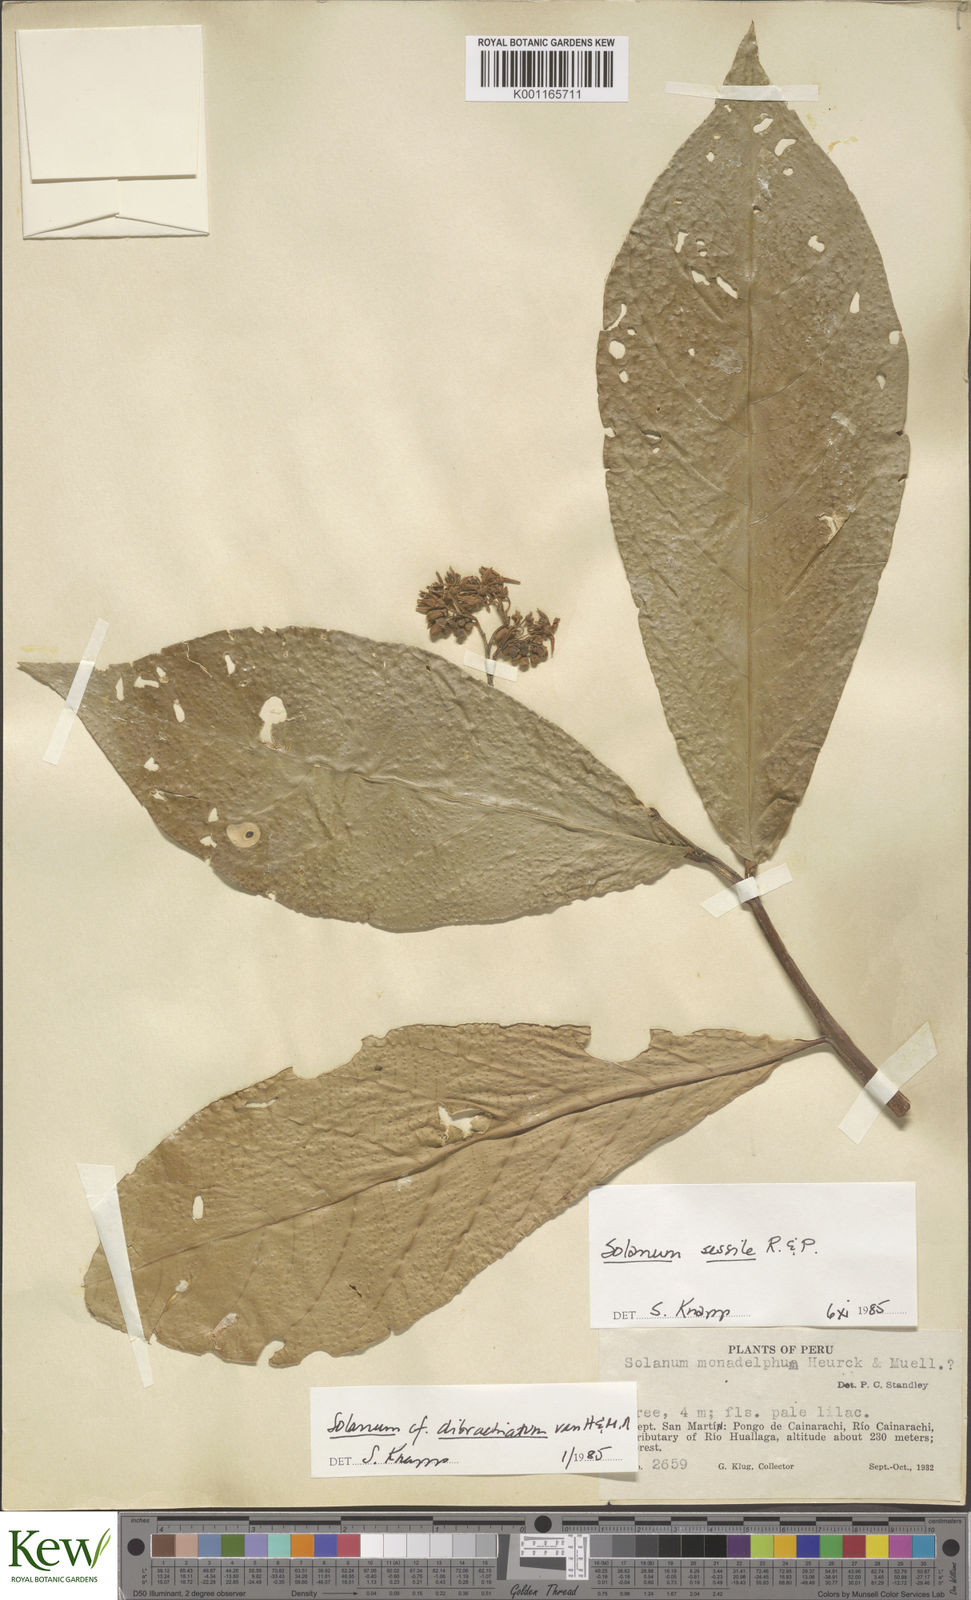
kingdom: Plantae
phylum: Tracheophyta
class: Magnoliopsida
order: Solanales
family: Solanaceae
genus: Solanum
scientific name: Solanum sessile
